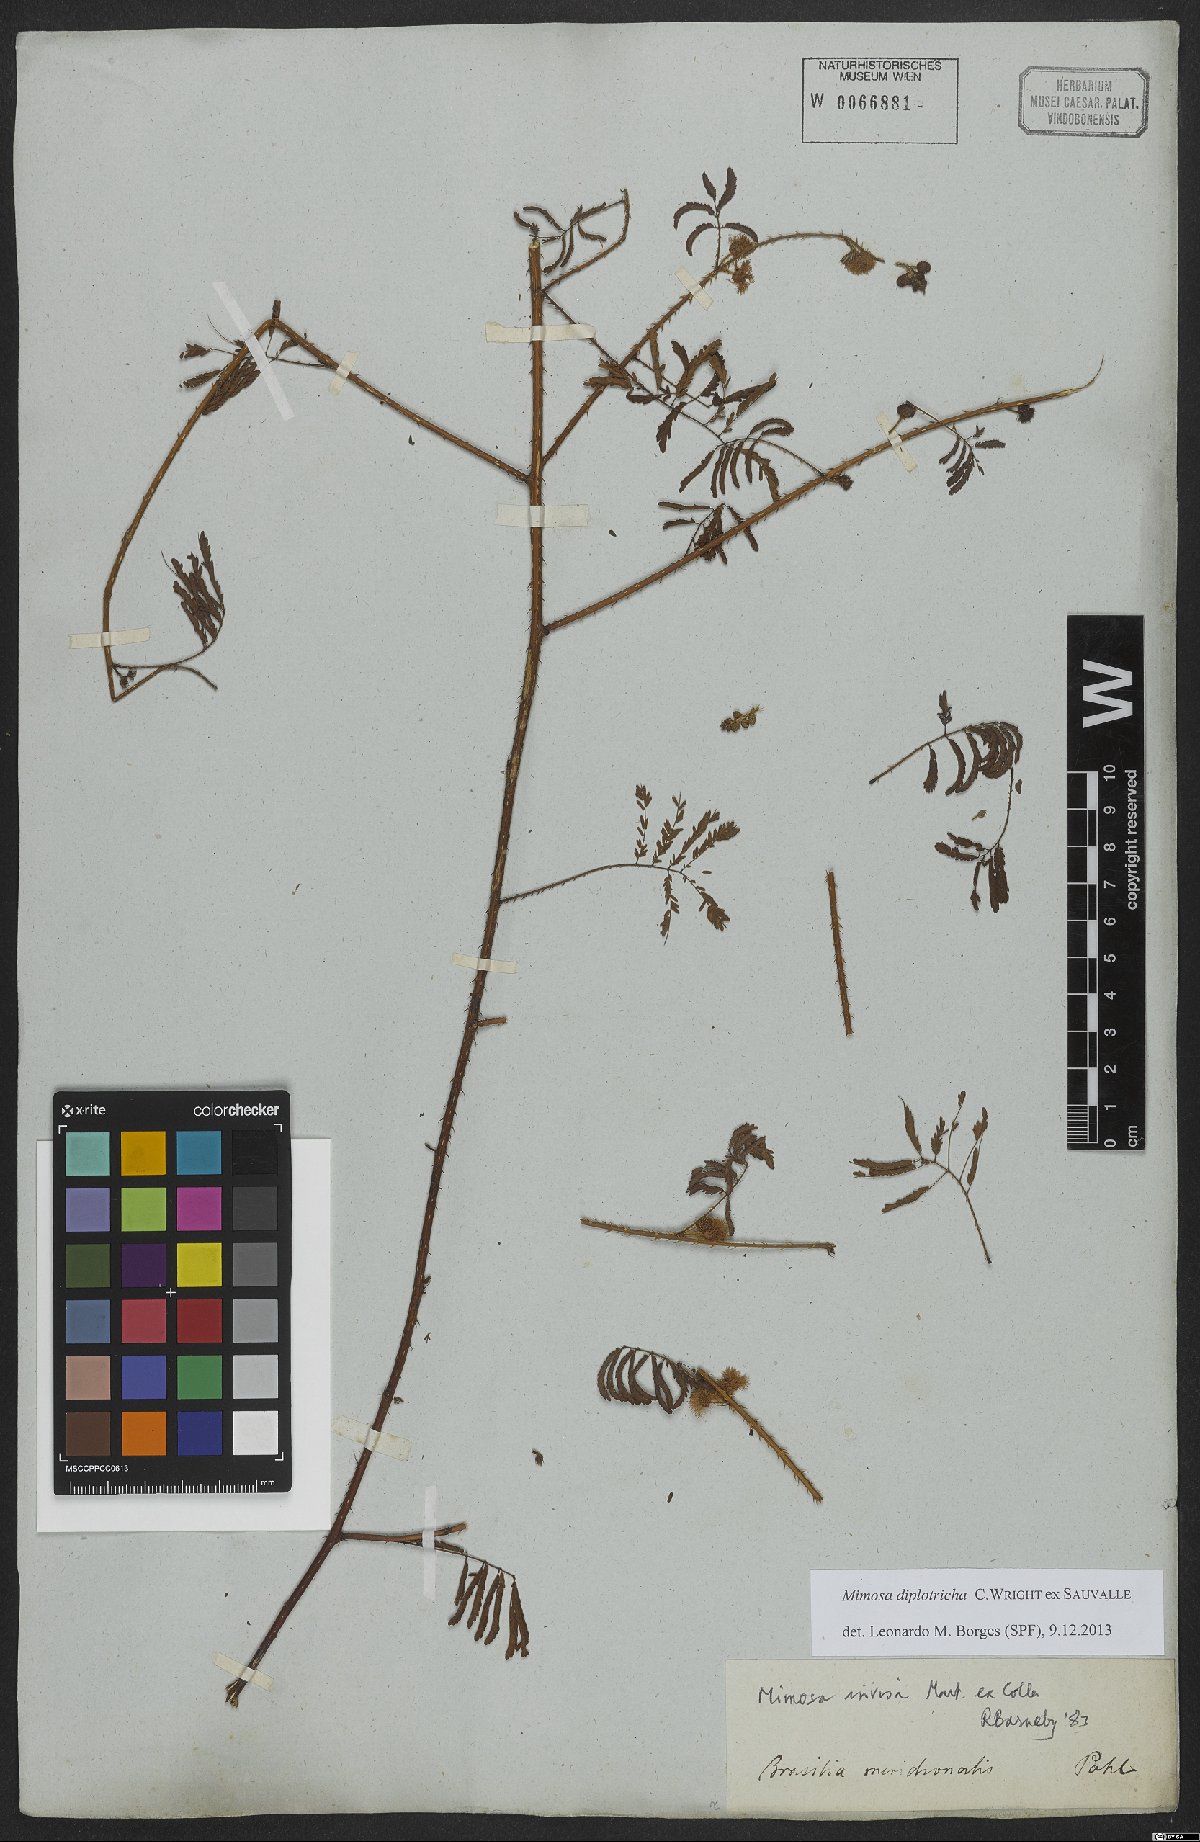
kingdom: Plantae
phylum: Tracheophyta
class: Magnoliopsida
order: Fabales
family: Fabaceae
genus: Mimosa
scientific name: Mimosa diplotricha
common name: Giant sensitive-plant
